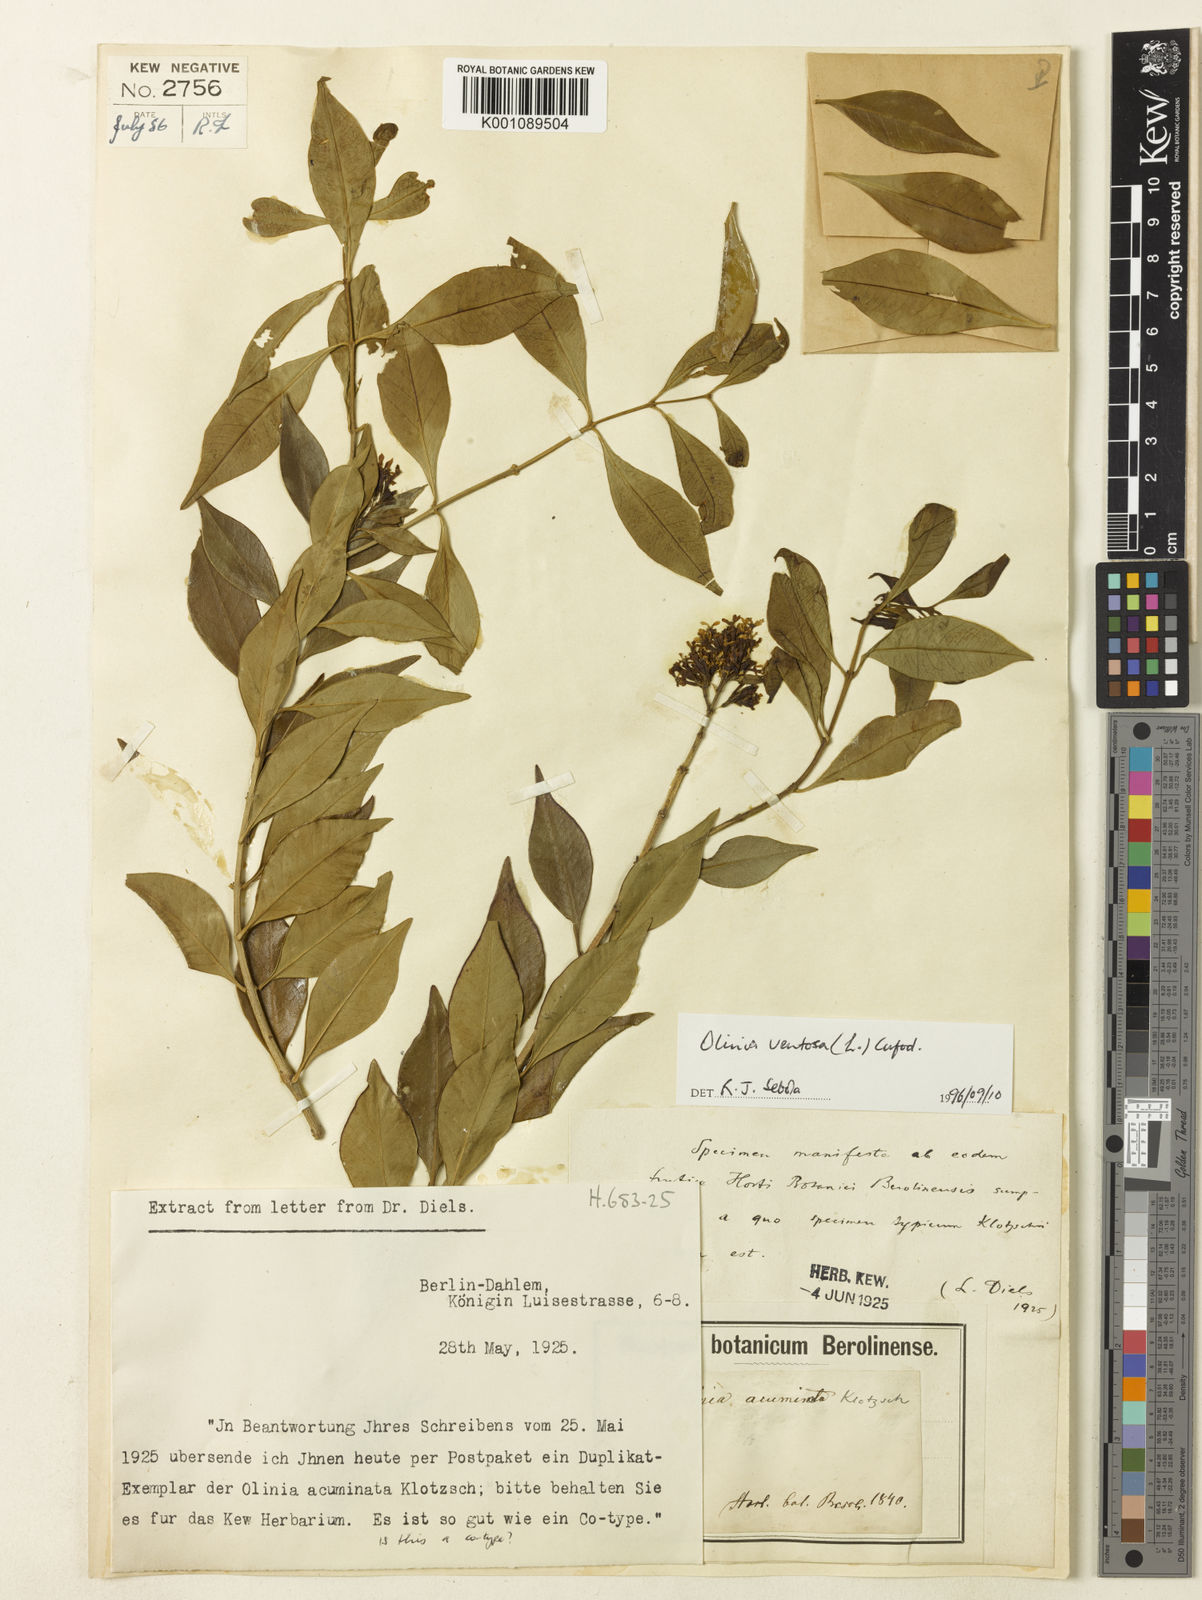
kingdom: Plantae
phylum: Tracheophyta
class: Magnoliopsida
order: Myrtales
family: Penaeaceae
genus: Olinia
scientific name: Olinia capensis
